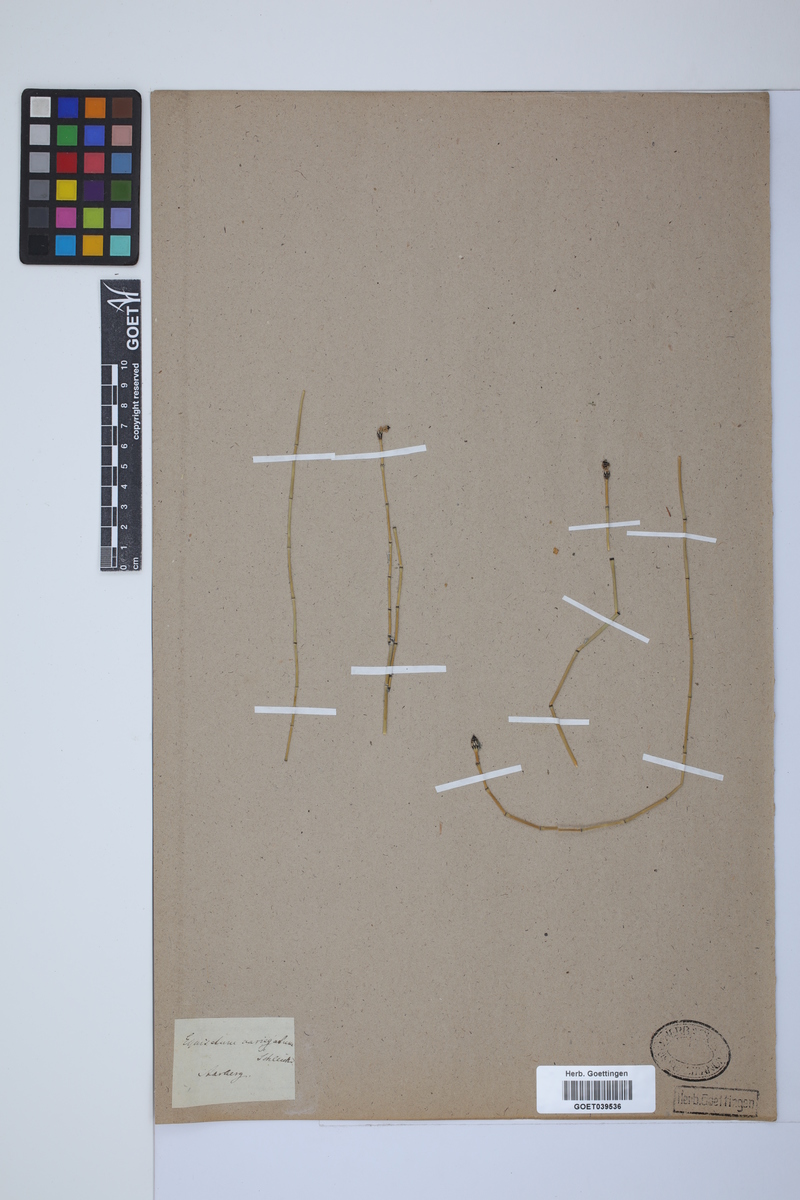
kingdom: Plantae
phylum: Tracheophyta
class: Polypodiopsida
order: Equisetales
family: Equisetaceae
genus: Equisetum
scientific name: Equisetum variegatum
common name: Variegated horsetail
